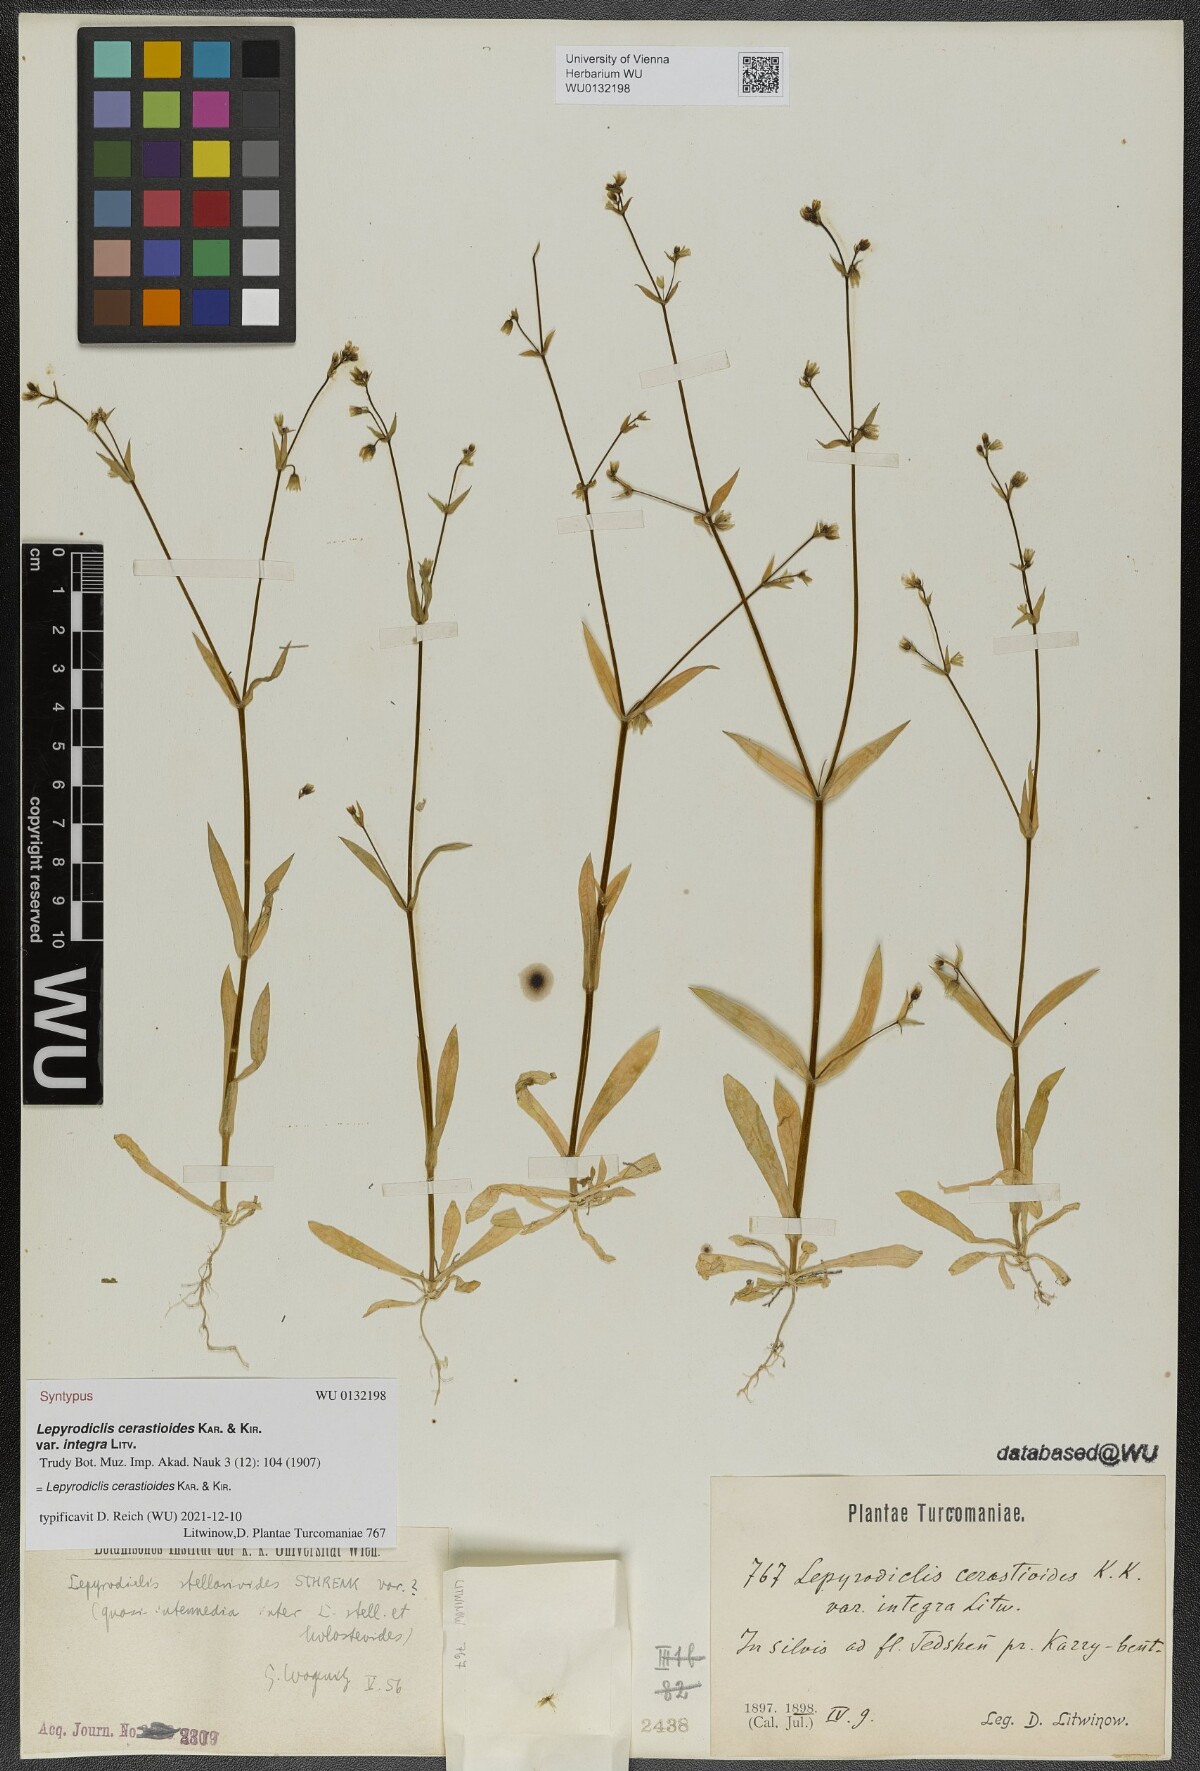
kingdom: Plantae
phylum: Tracheophyta
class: Magnoliopsida
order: Caryophyllales
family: Caryophyllaceae
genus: Lepyrodiclis
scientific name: Lepyrodiclis
